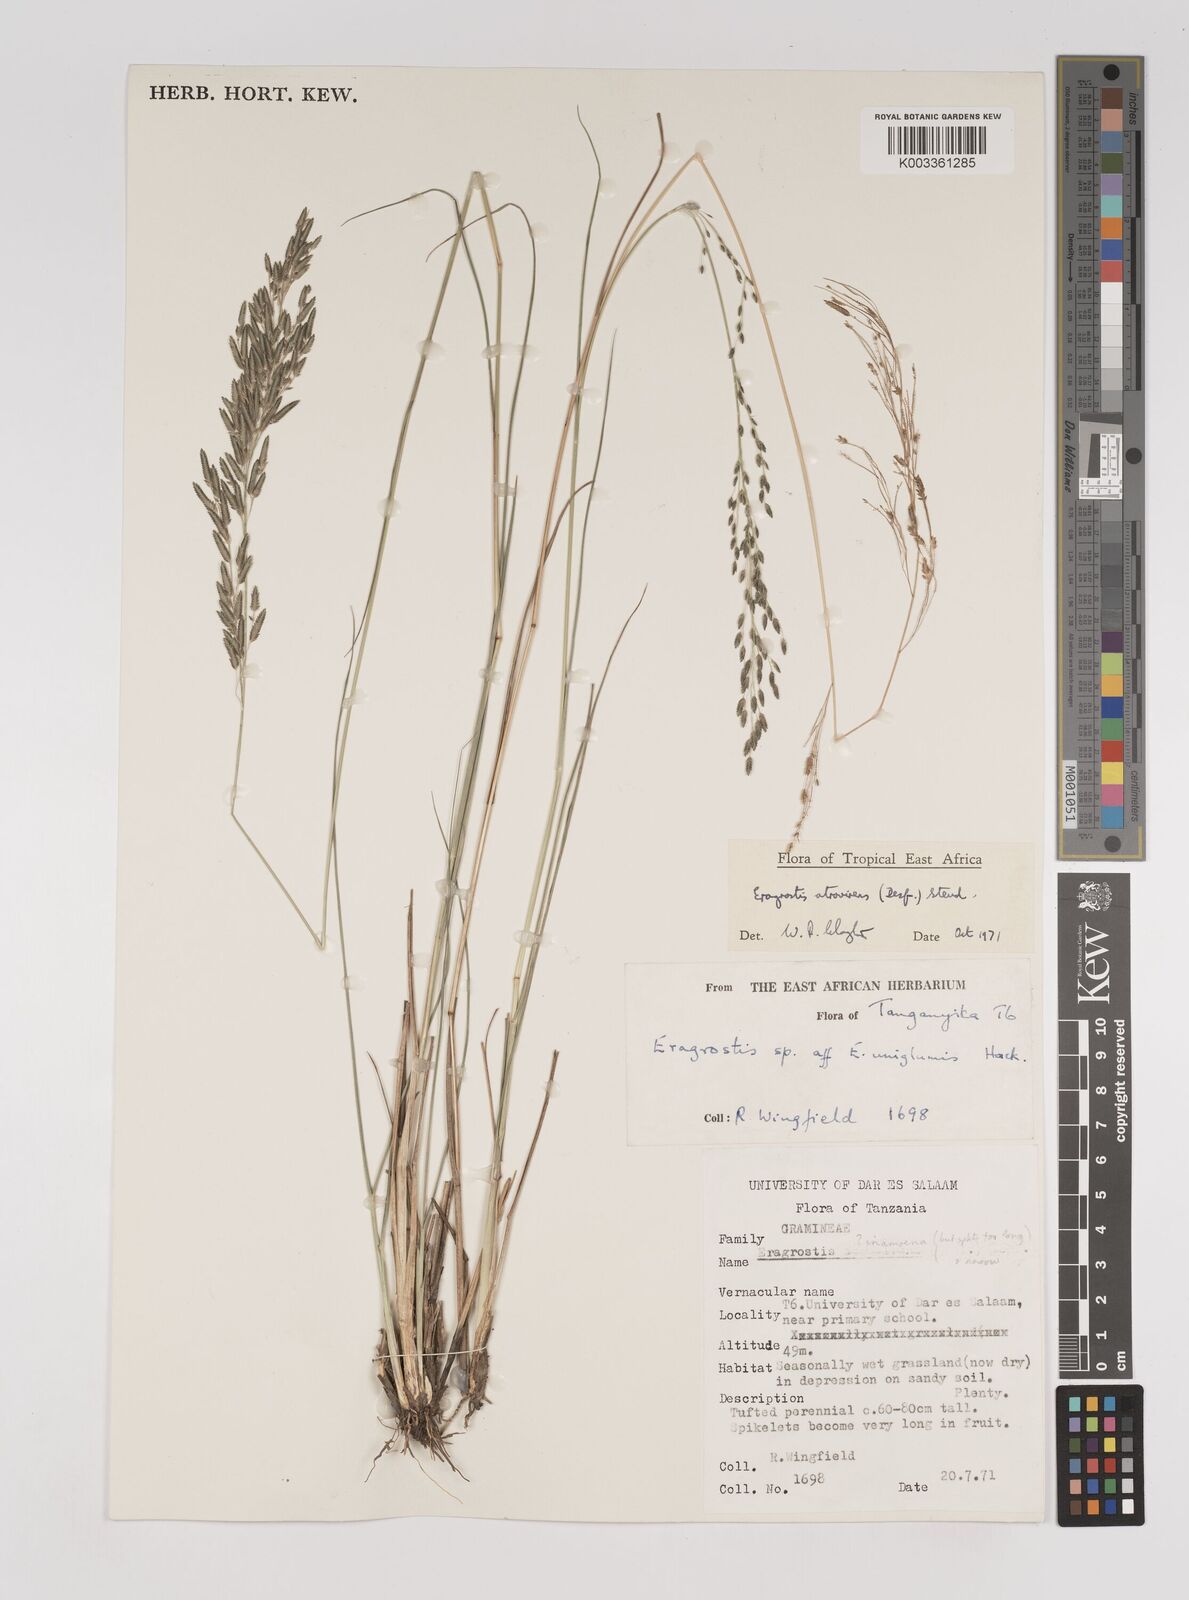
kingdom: Plantae
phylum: Tracheophyta
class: Liliopsida
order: Poales
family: Poaceae
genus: Eragrostis
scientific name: Eragrostis papposa
